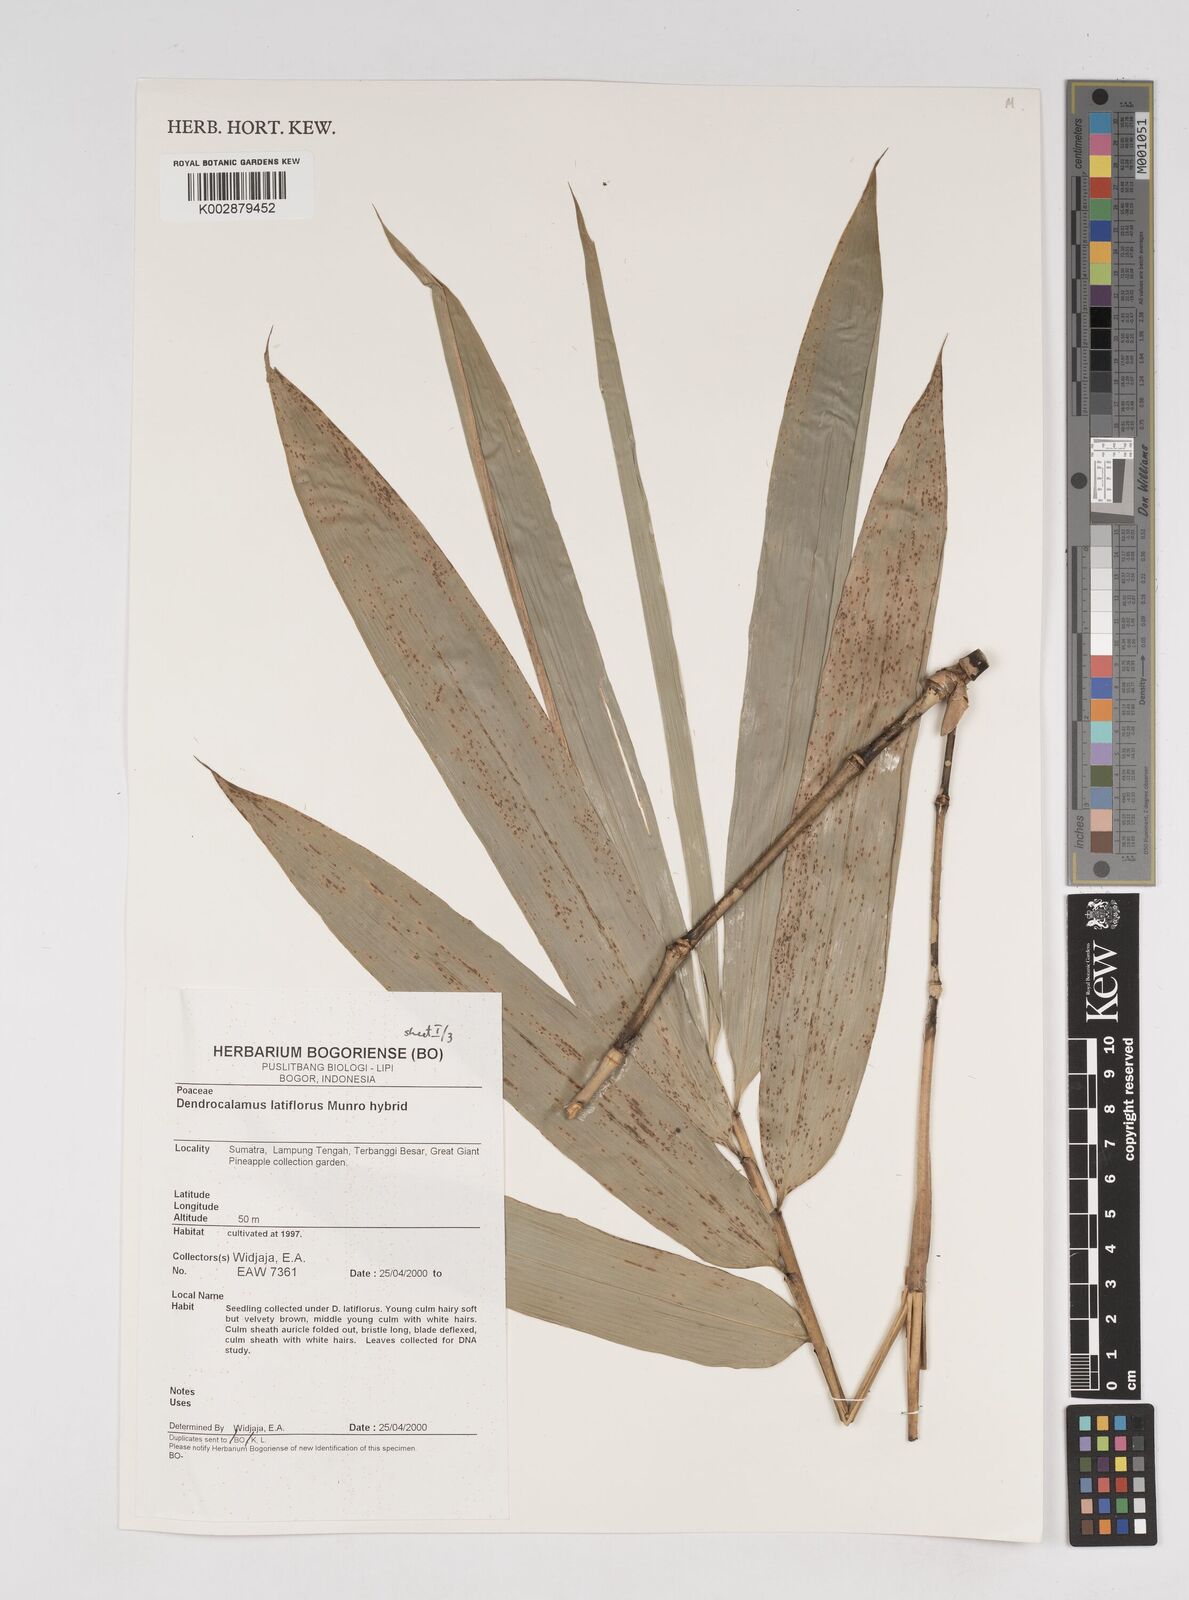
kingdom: Plantae
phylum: Tracheophyta
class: Liliopsida
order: Poales
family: Poaceae
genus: Dendrocalamus
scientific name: Dendrocalamus latiflorus
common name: Giant bamboo
